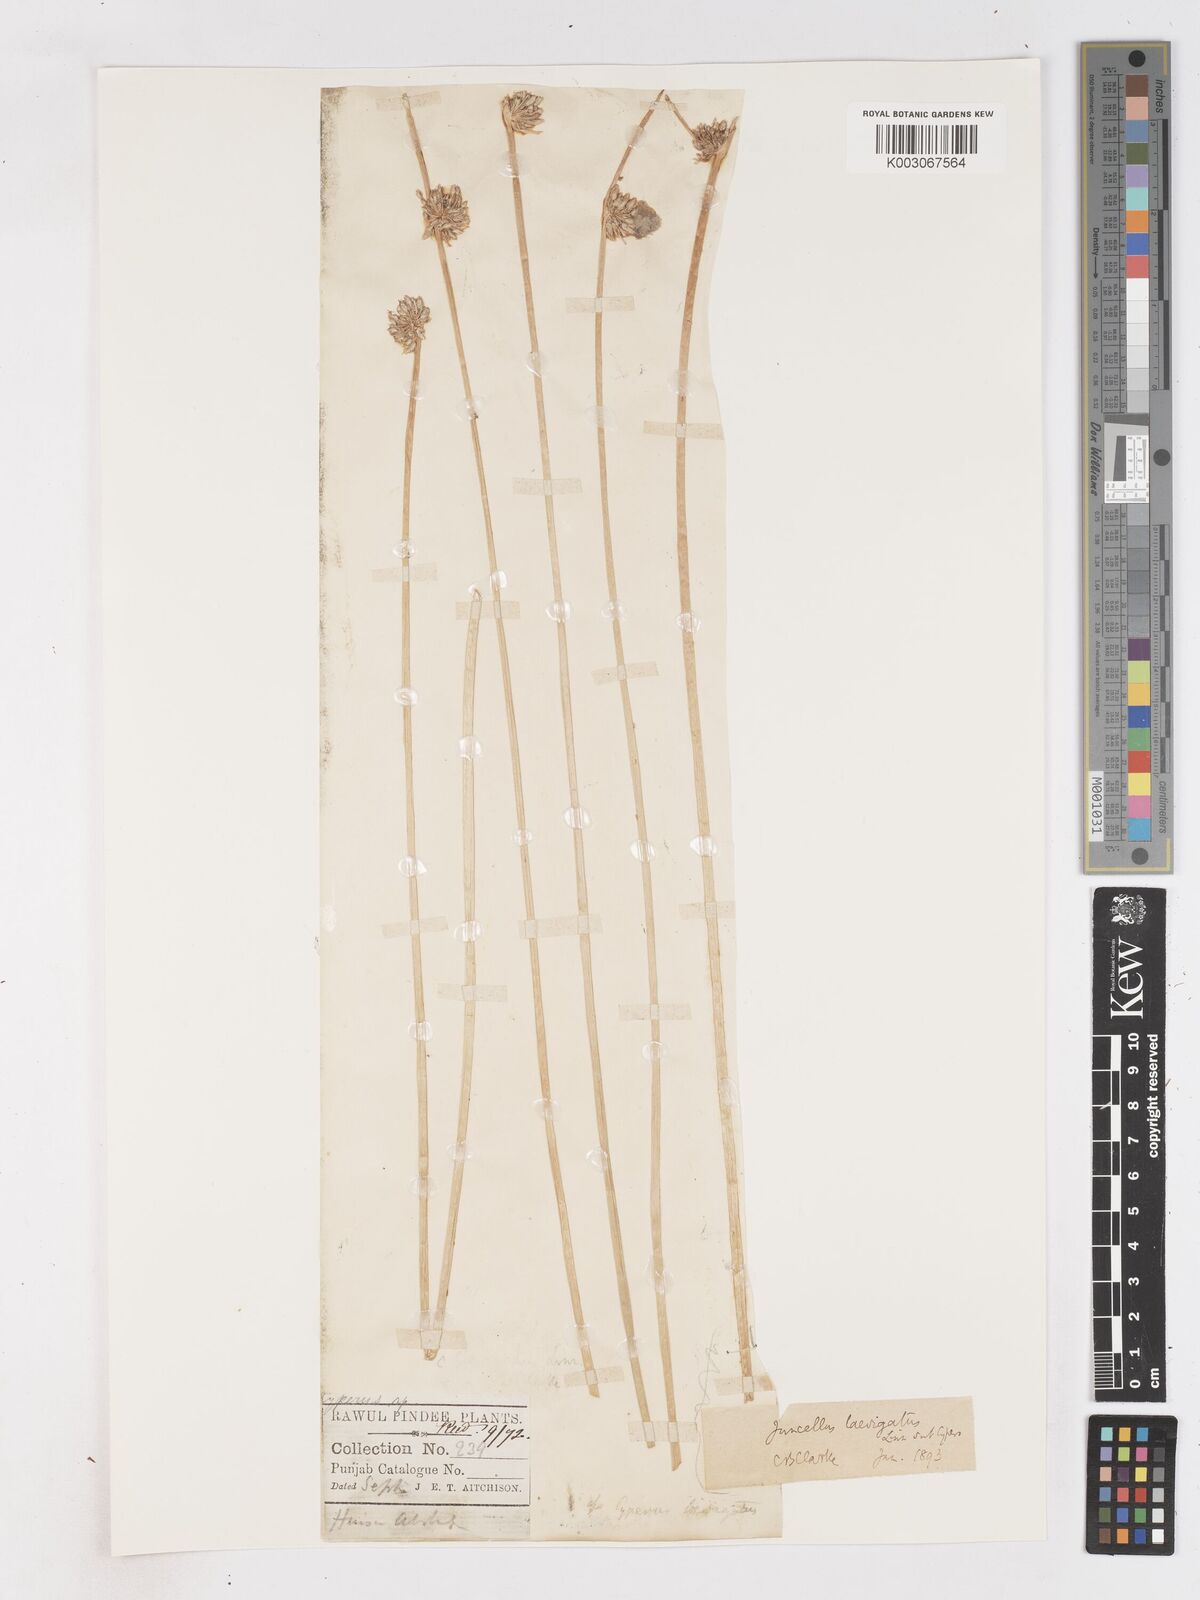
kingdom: Plantae
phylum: Tracheophyta
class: Liliopsida
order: Poales
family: Cyperaceae
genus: Cyperus
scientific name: Cyperus laevigatus
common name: Smooth flat sedge
